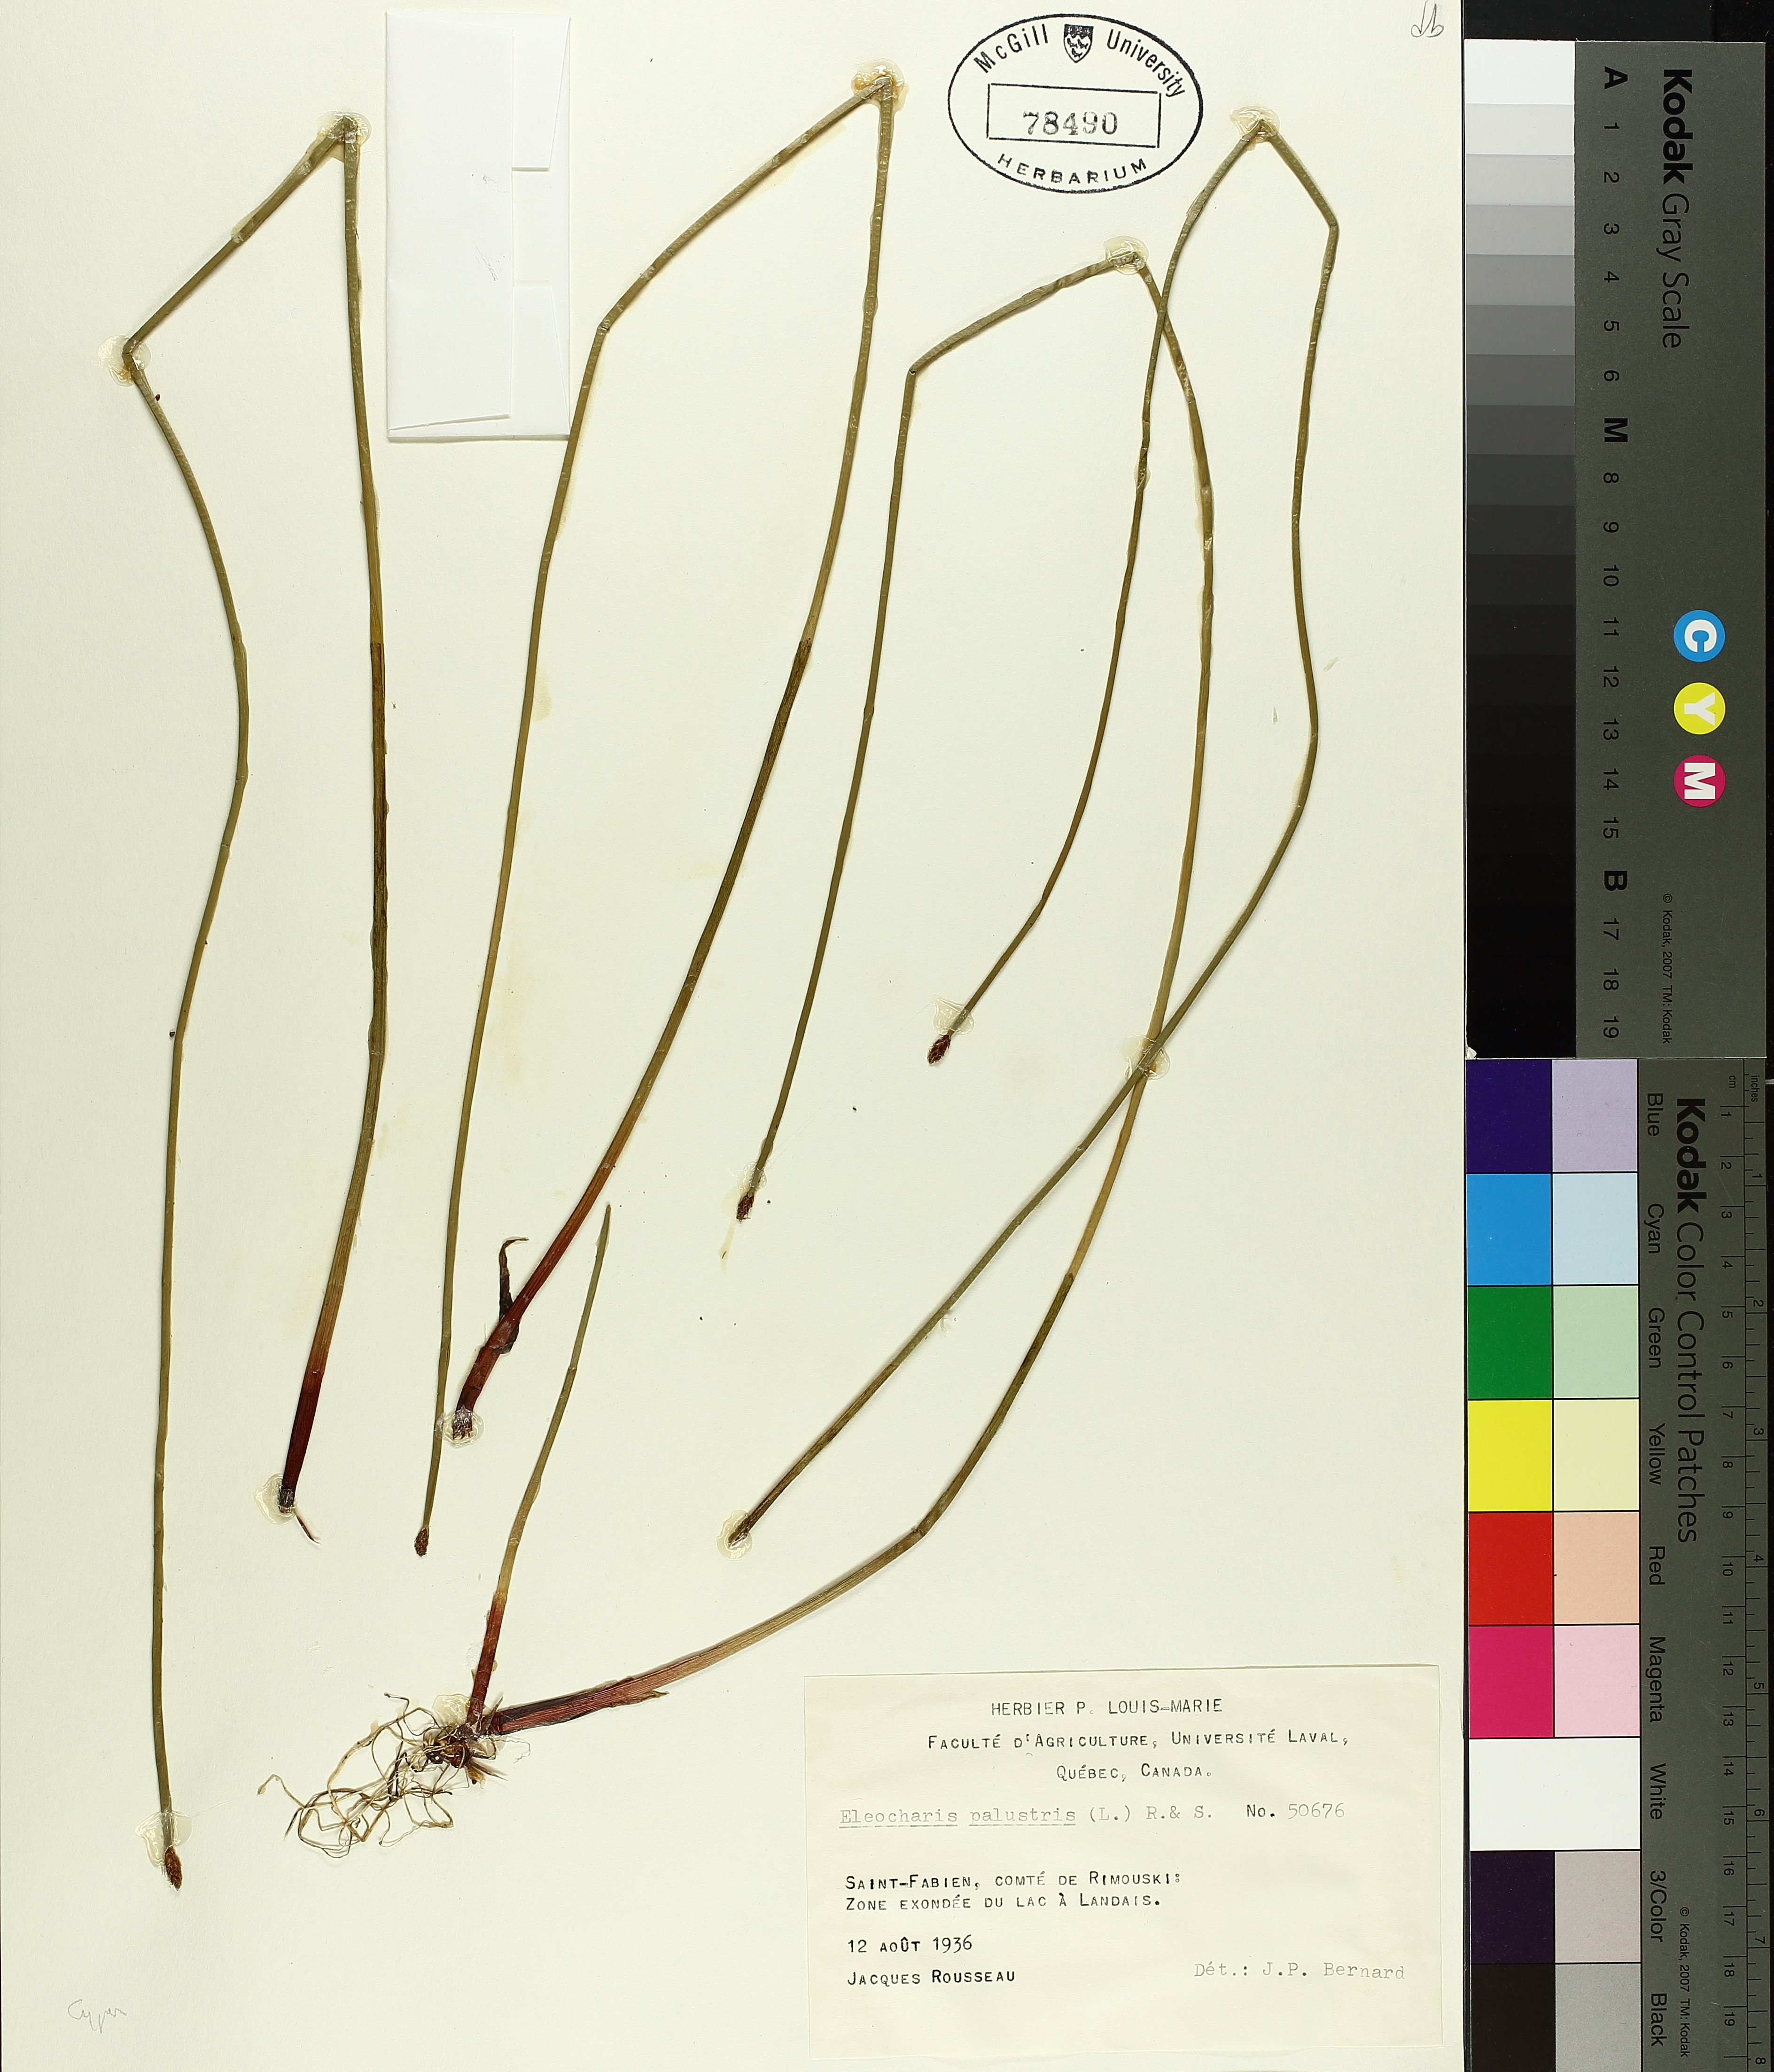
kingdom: Plantae
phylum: Tracheophyta
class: Liliopsida
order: Poales
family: Cyperaceae
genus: Eleocharis
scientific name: Eleocharis palustris
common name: Common spike-rush
